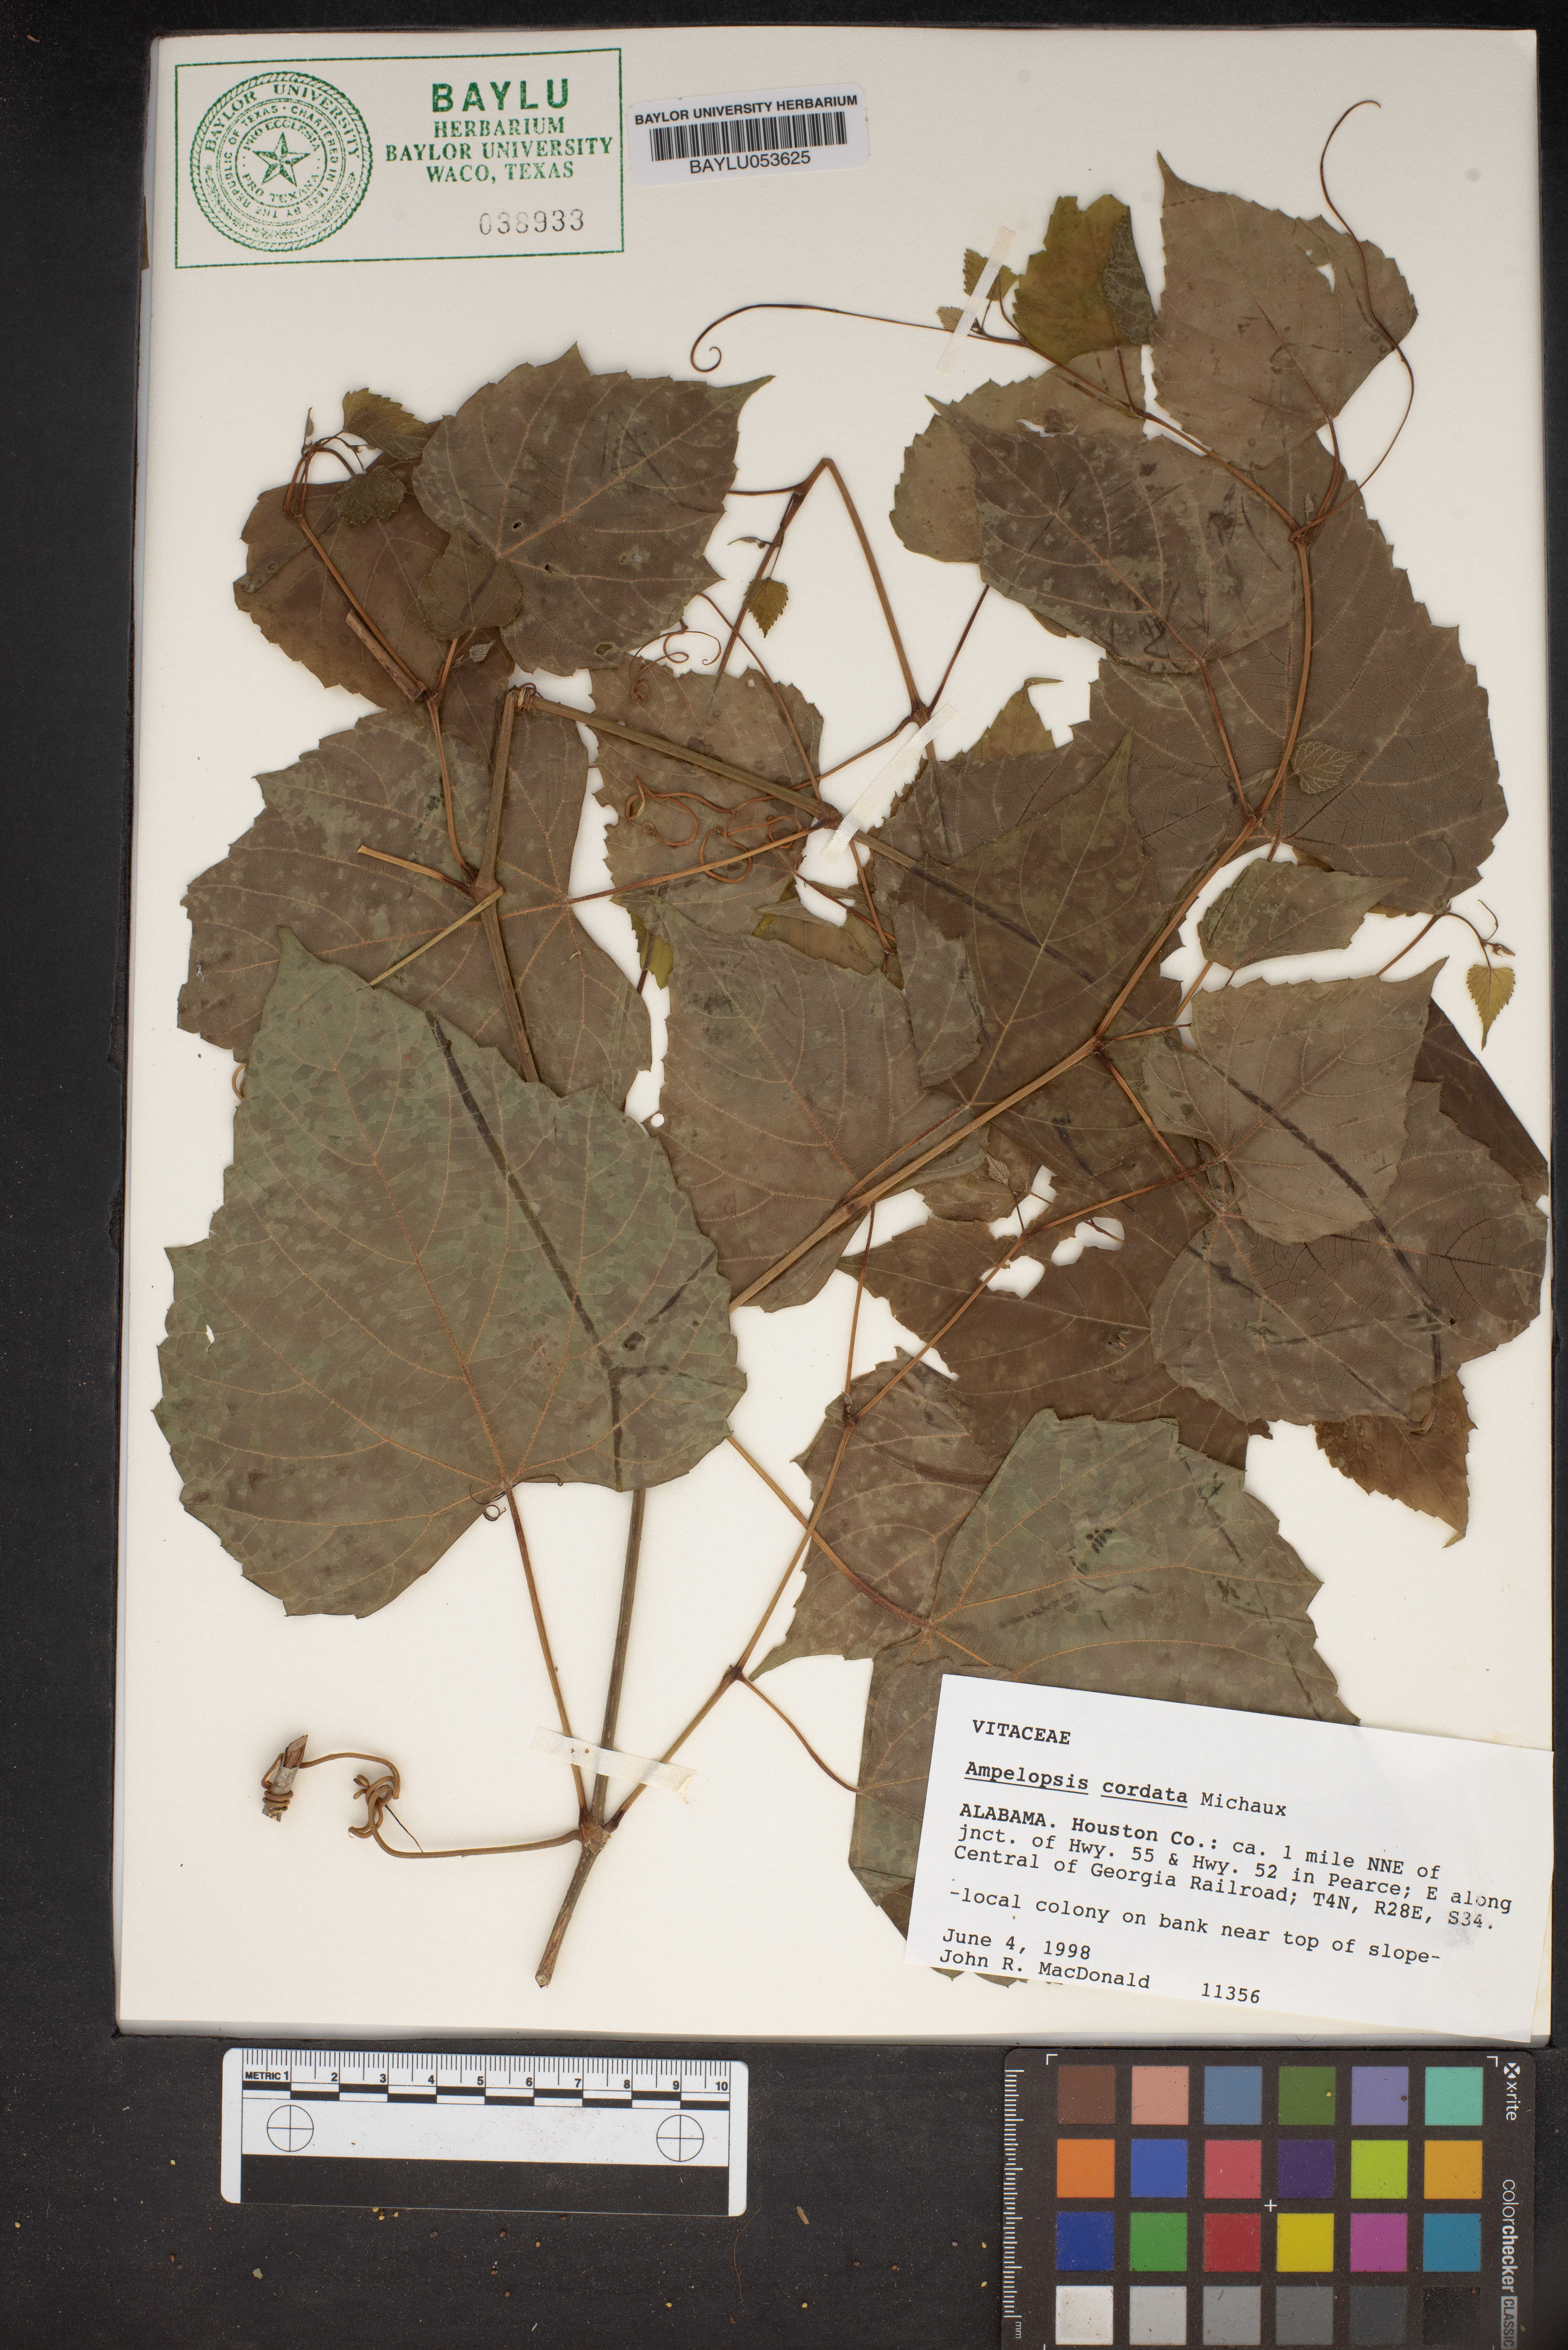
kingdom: Plantae
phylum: Tracheophyta
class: Magnoliopsida
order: Vitales
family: Vitaceae
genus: Ampelopsis
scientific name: Ampelopsis cordata
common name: Heart-leaf ampelopsis
